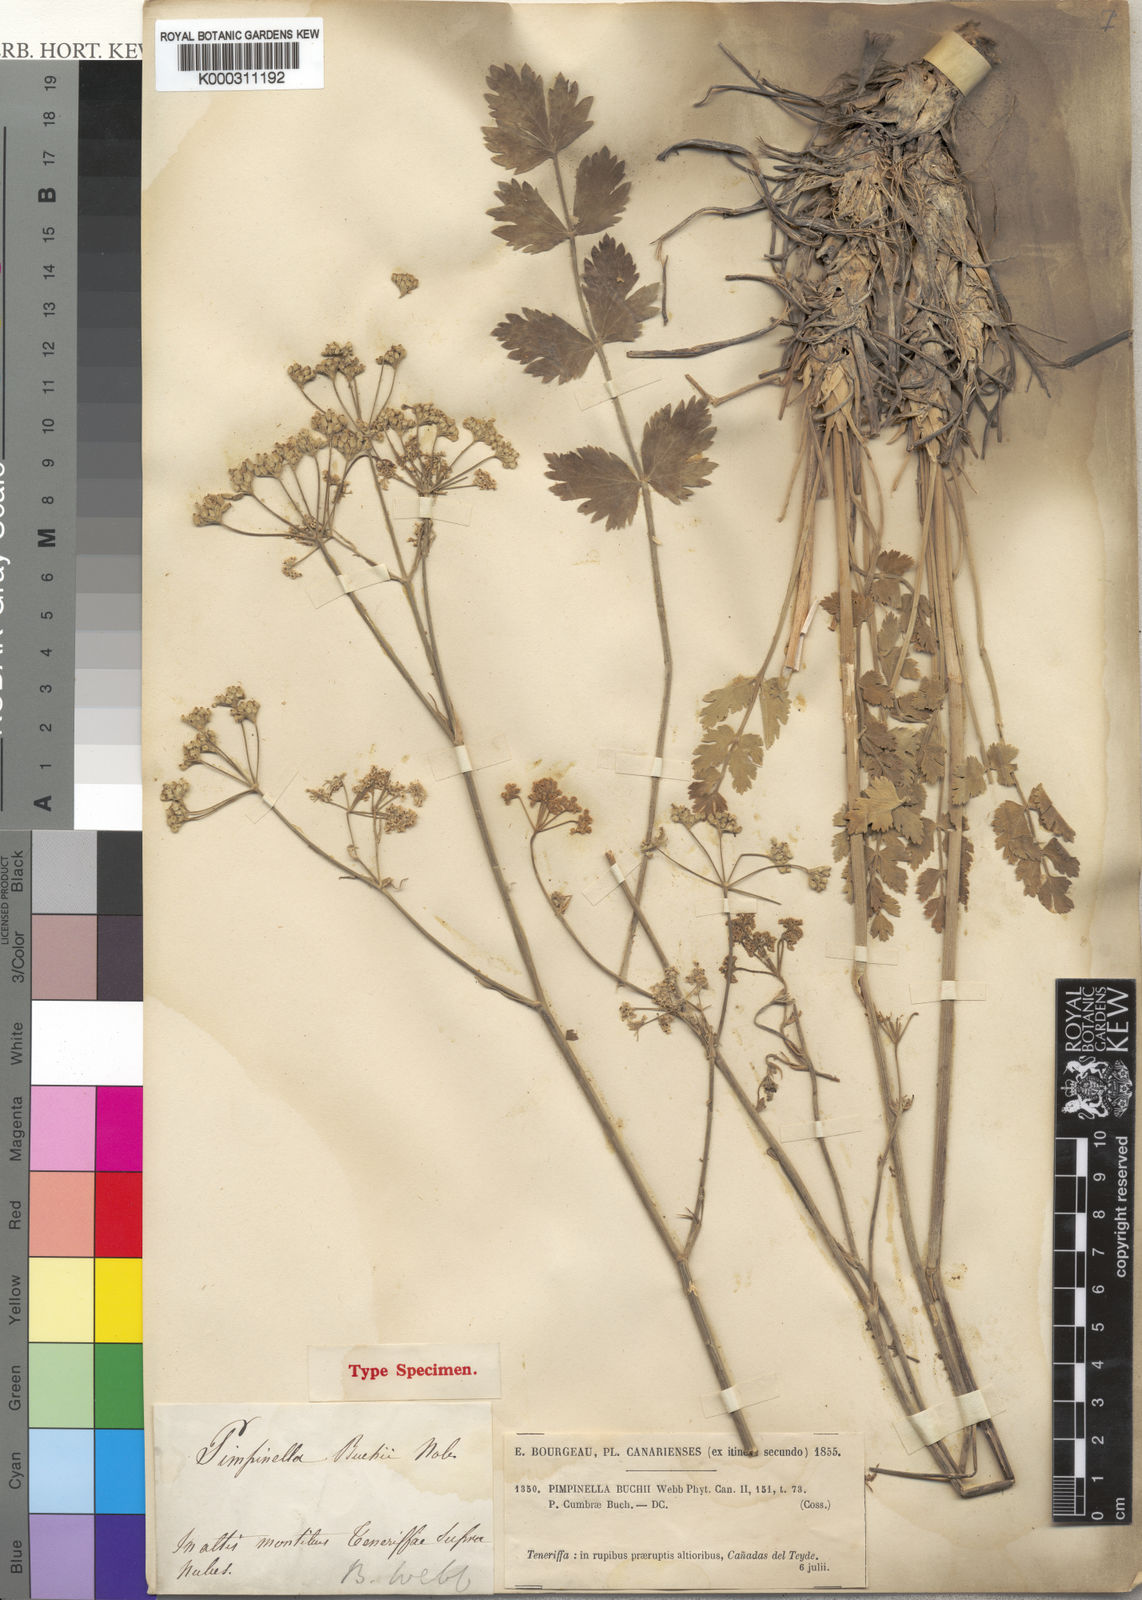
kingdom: Plantae
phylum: Tracheophyta
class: Magnoliopsida
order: Apiales
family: Apiaceae
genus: Pimpinella
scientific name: Pimpinella cumbrae
